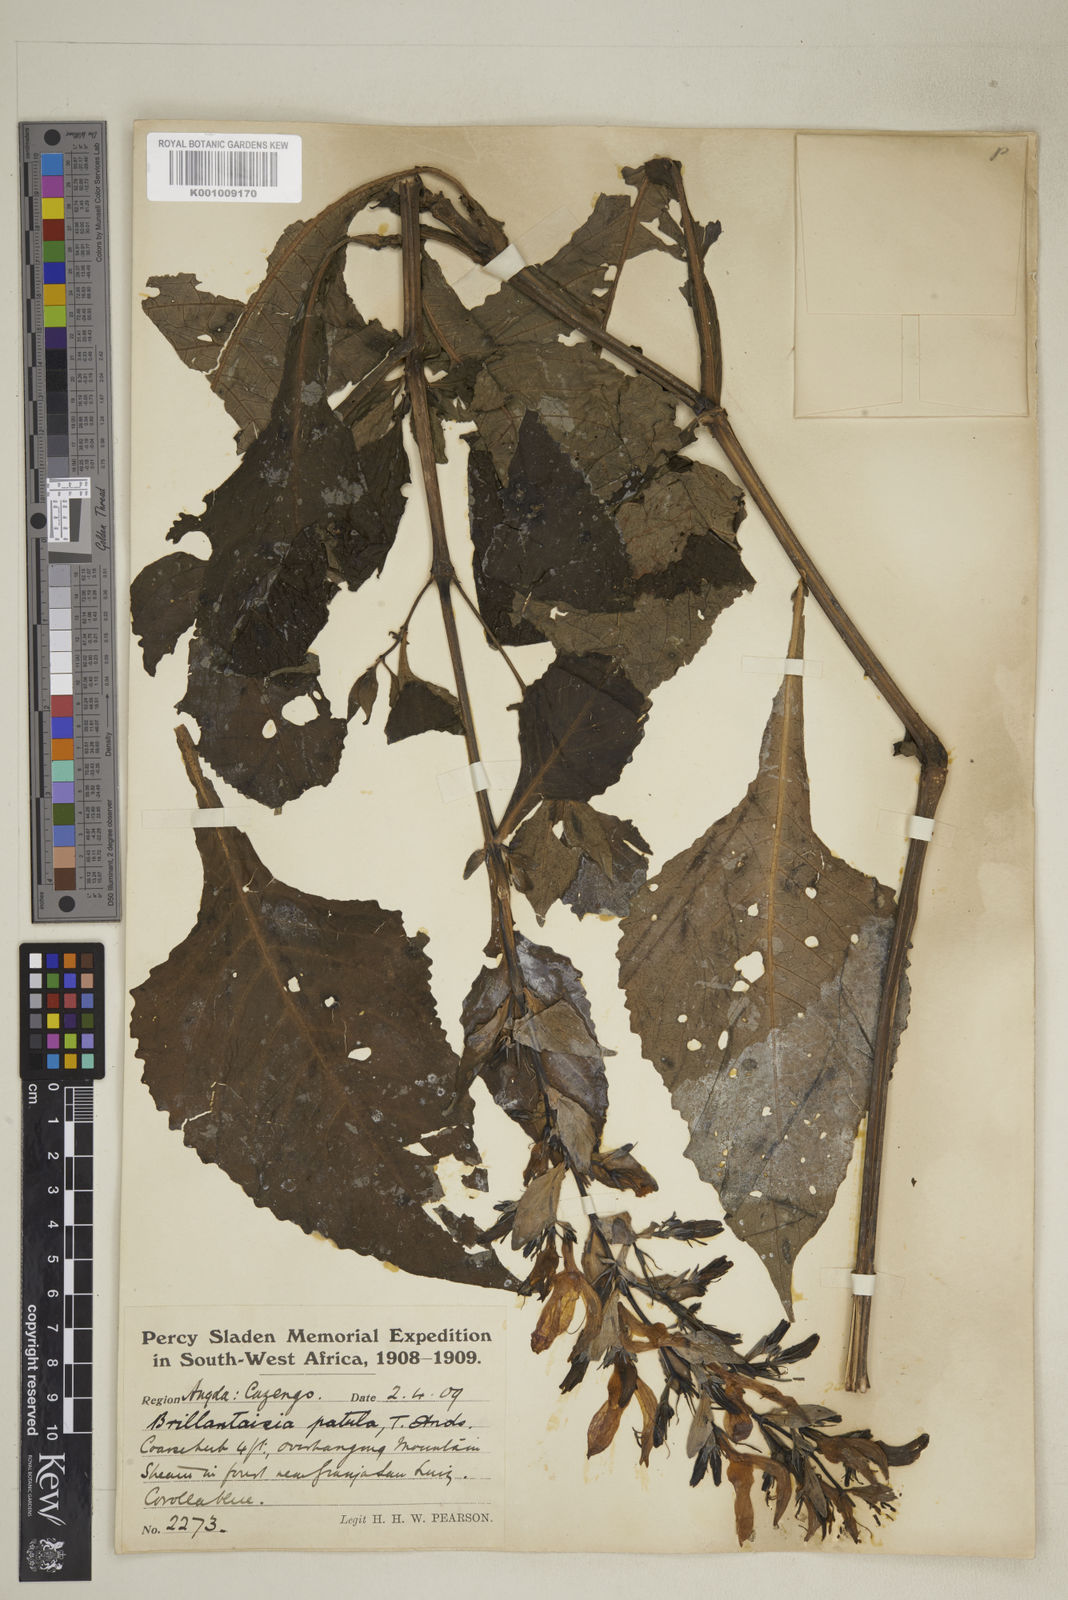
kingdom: Plantae
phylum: Tracheophyta
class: Magnoliopsida
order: Lamiales
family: Acanthaceae
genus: Brillantaisia
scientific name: Brillantaisia owariensis
